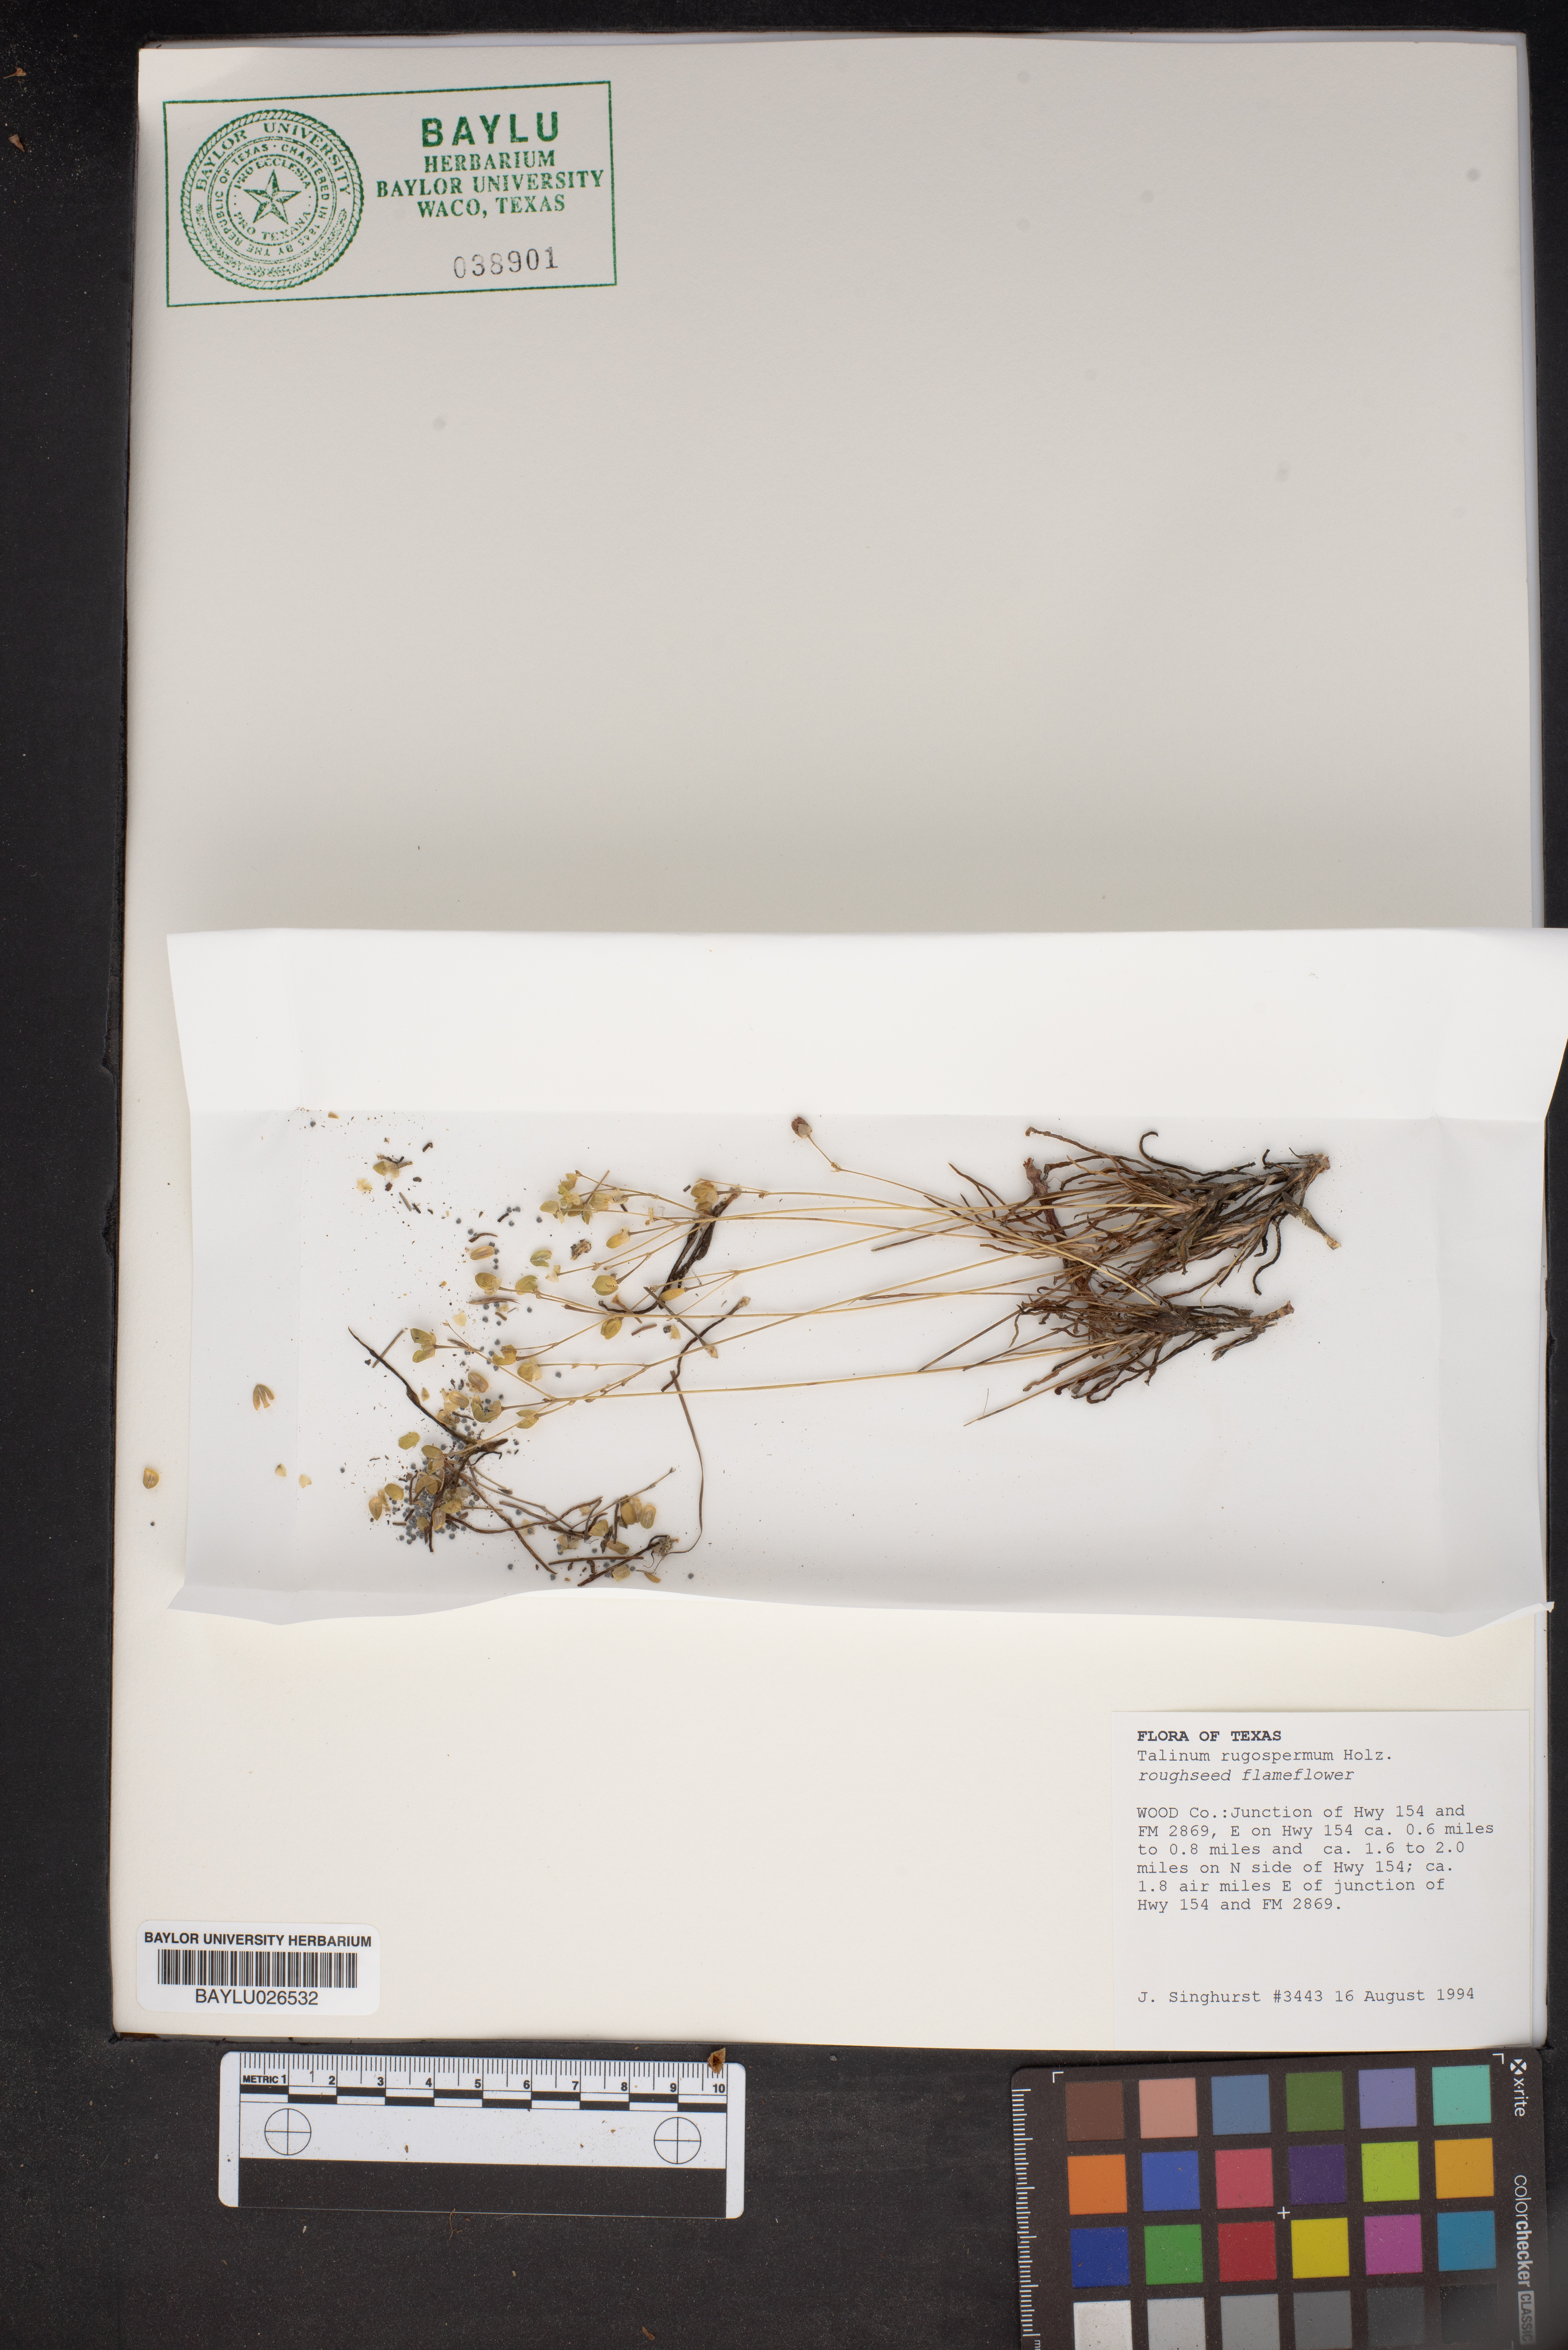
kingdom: Plantae
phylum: Tracheophyta
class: Magnoliopsida
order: Caryophyllales
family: Montiaceae
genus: Phemeranthus
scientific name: Phemeranthus rugospermus
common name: Prairie fameflower
